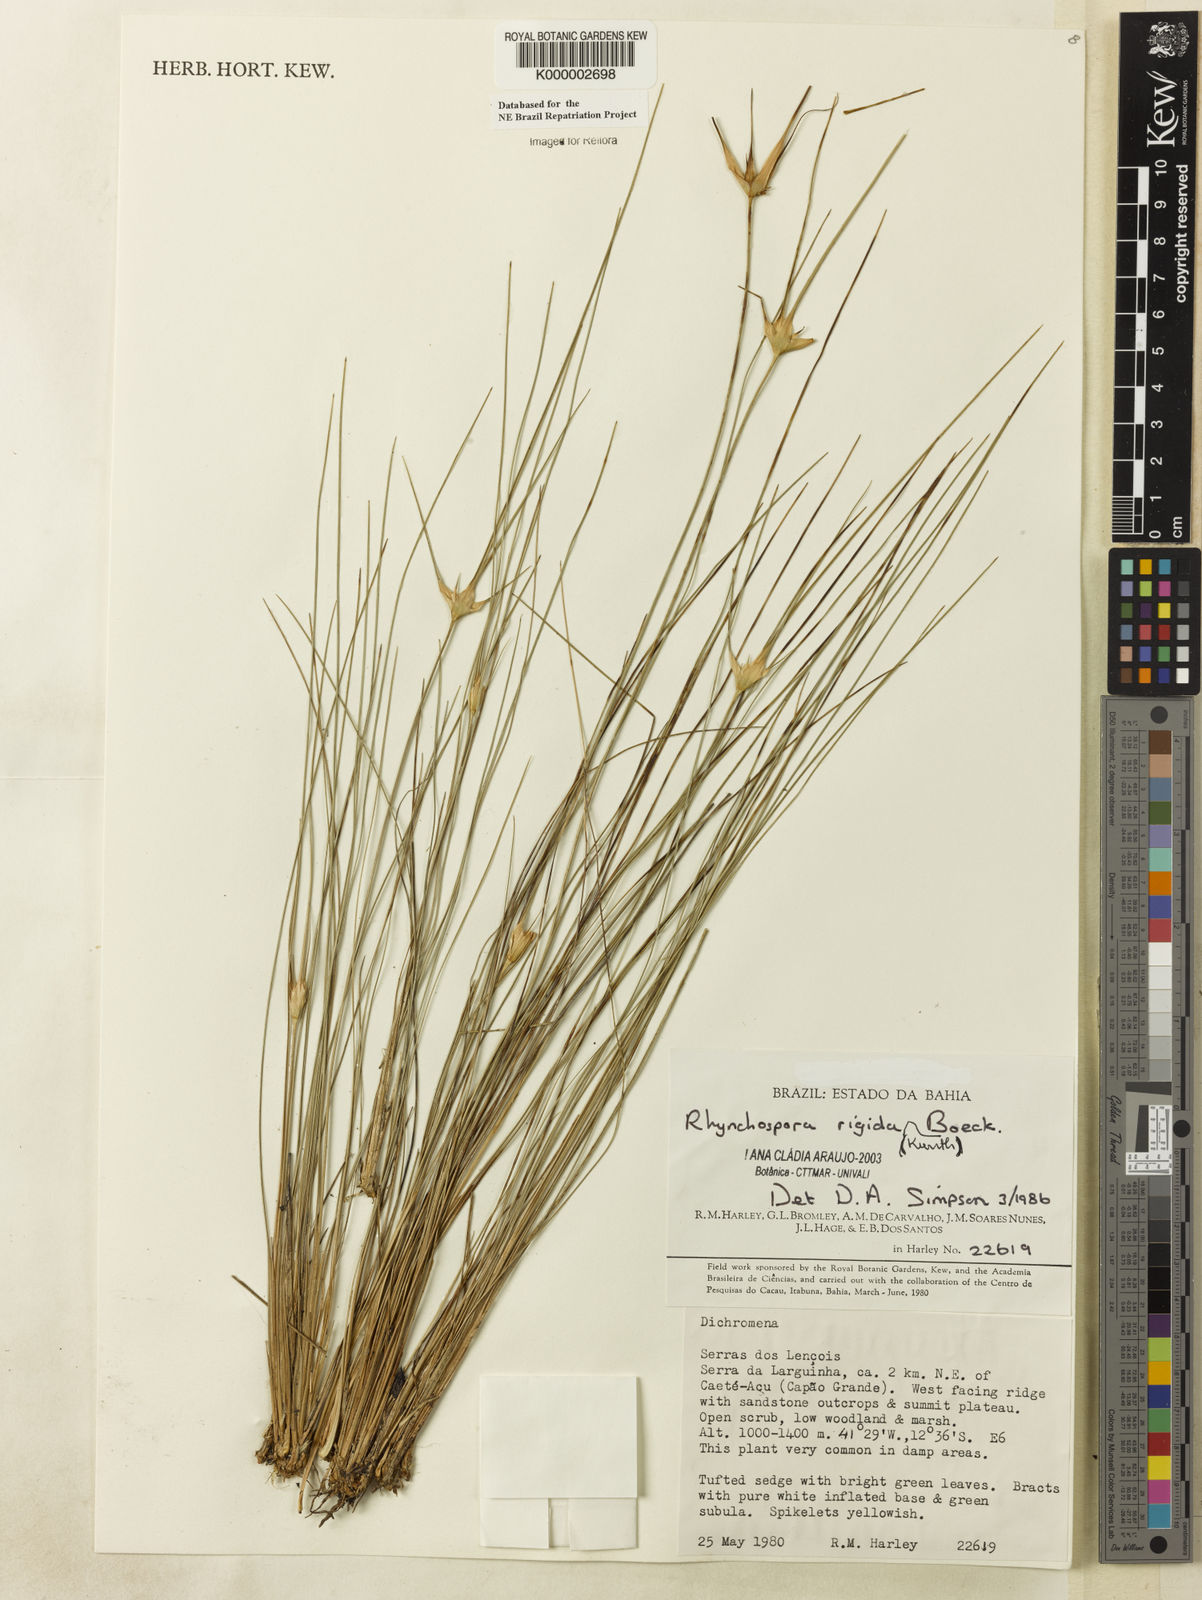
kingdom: Plantae
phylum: Tracheophyta
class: Liliopsida
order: Poales
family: Cyperaceae
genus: Rhynchospora
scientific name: Rhynchospora consanguinea
